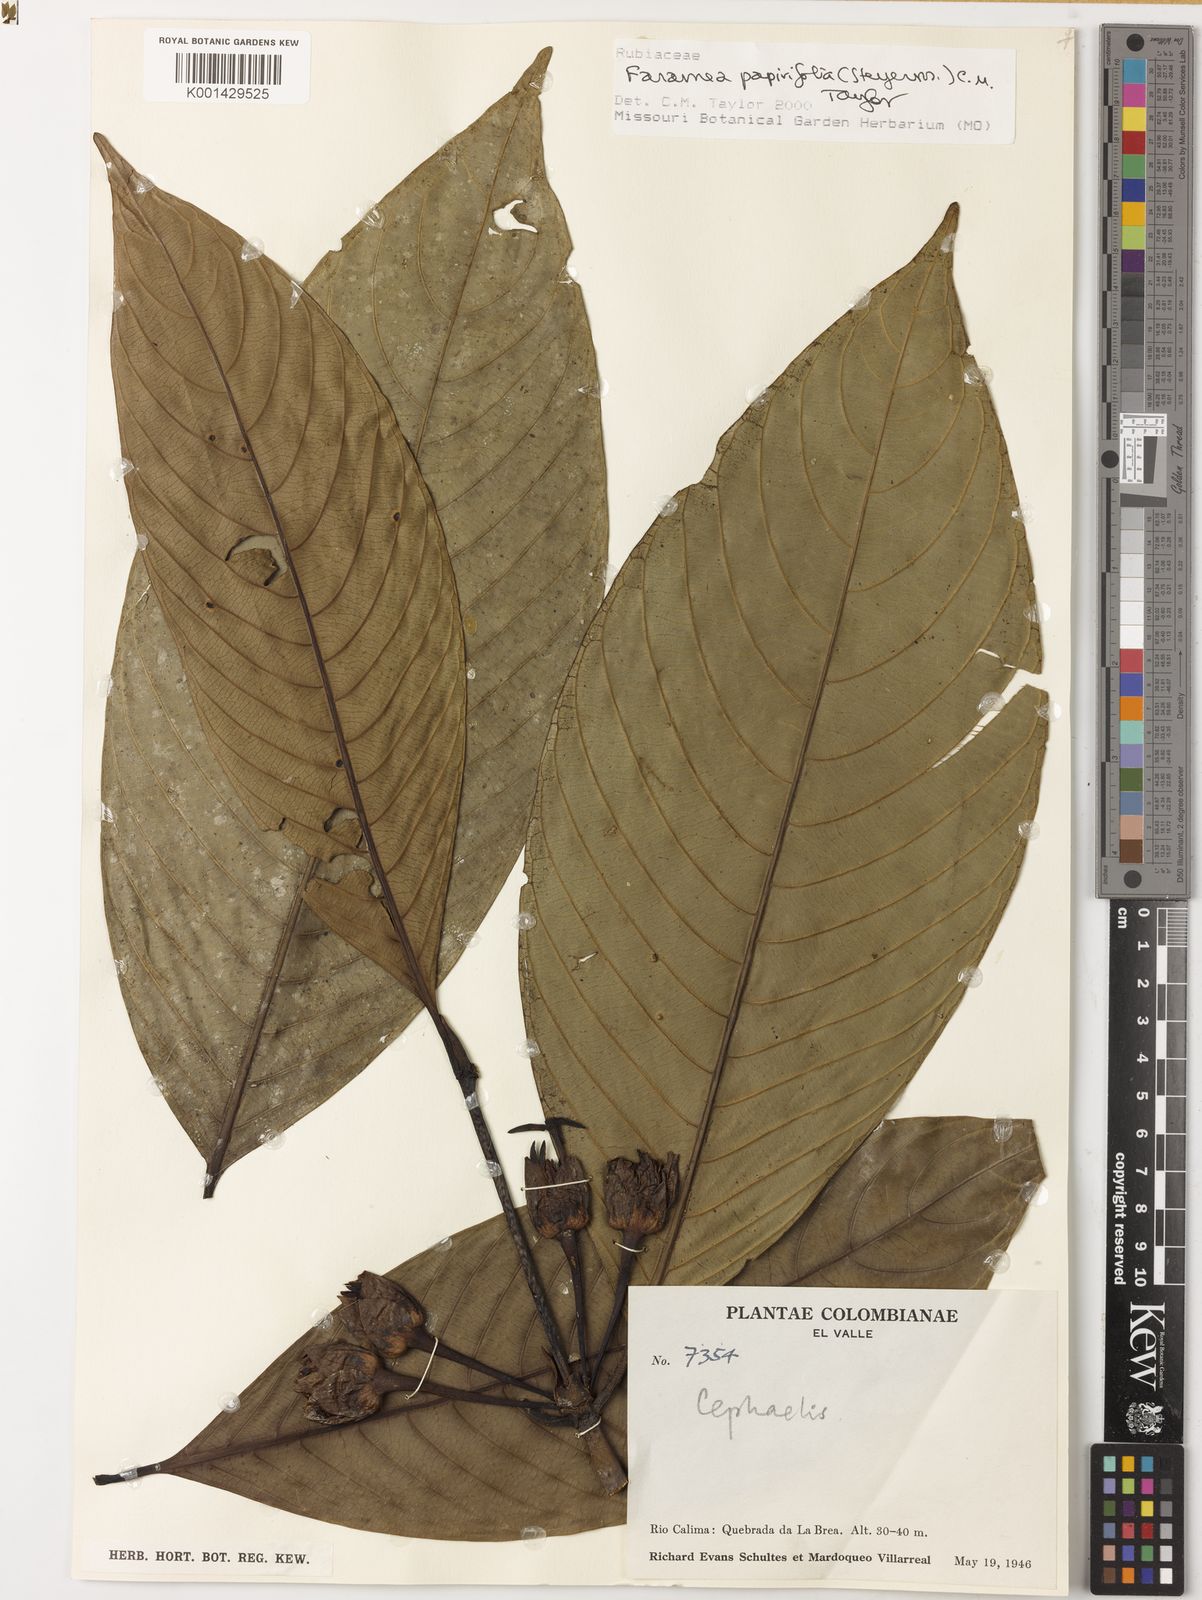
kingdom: Plantae
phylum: Tracheophyta
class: Magnoliopsida
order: Gentianales
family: Rubiaceae
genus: Faramea
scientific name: Faramea papirifolia
